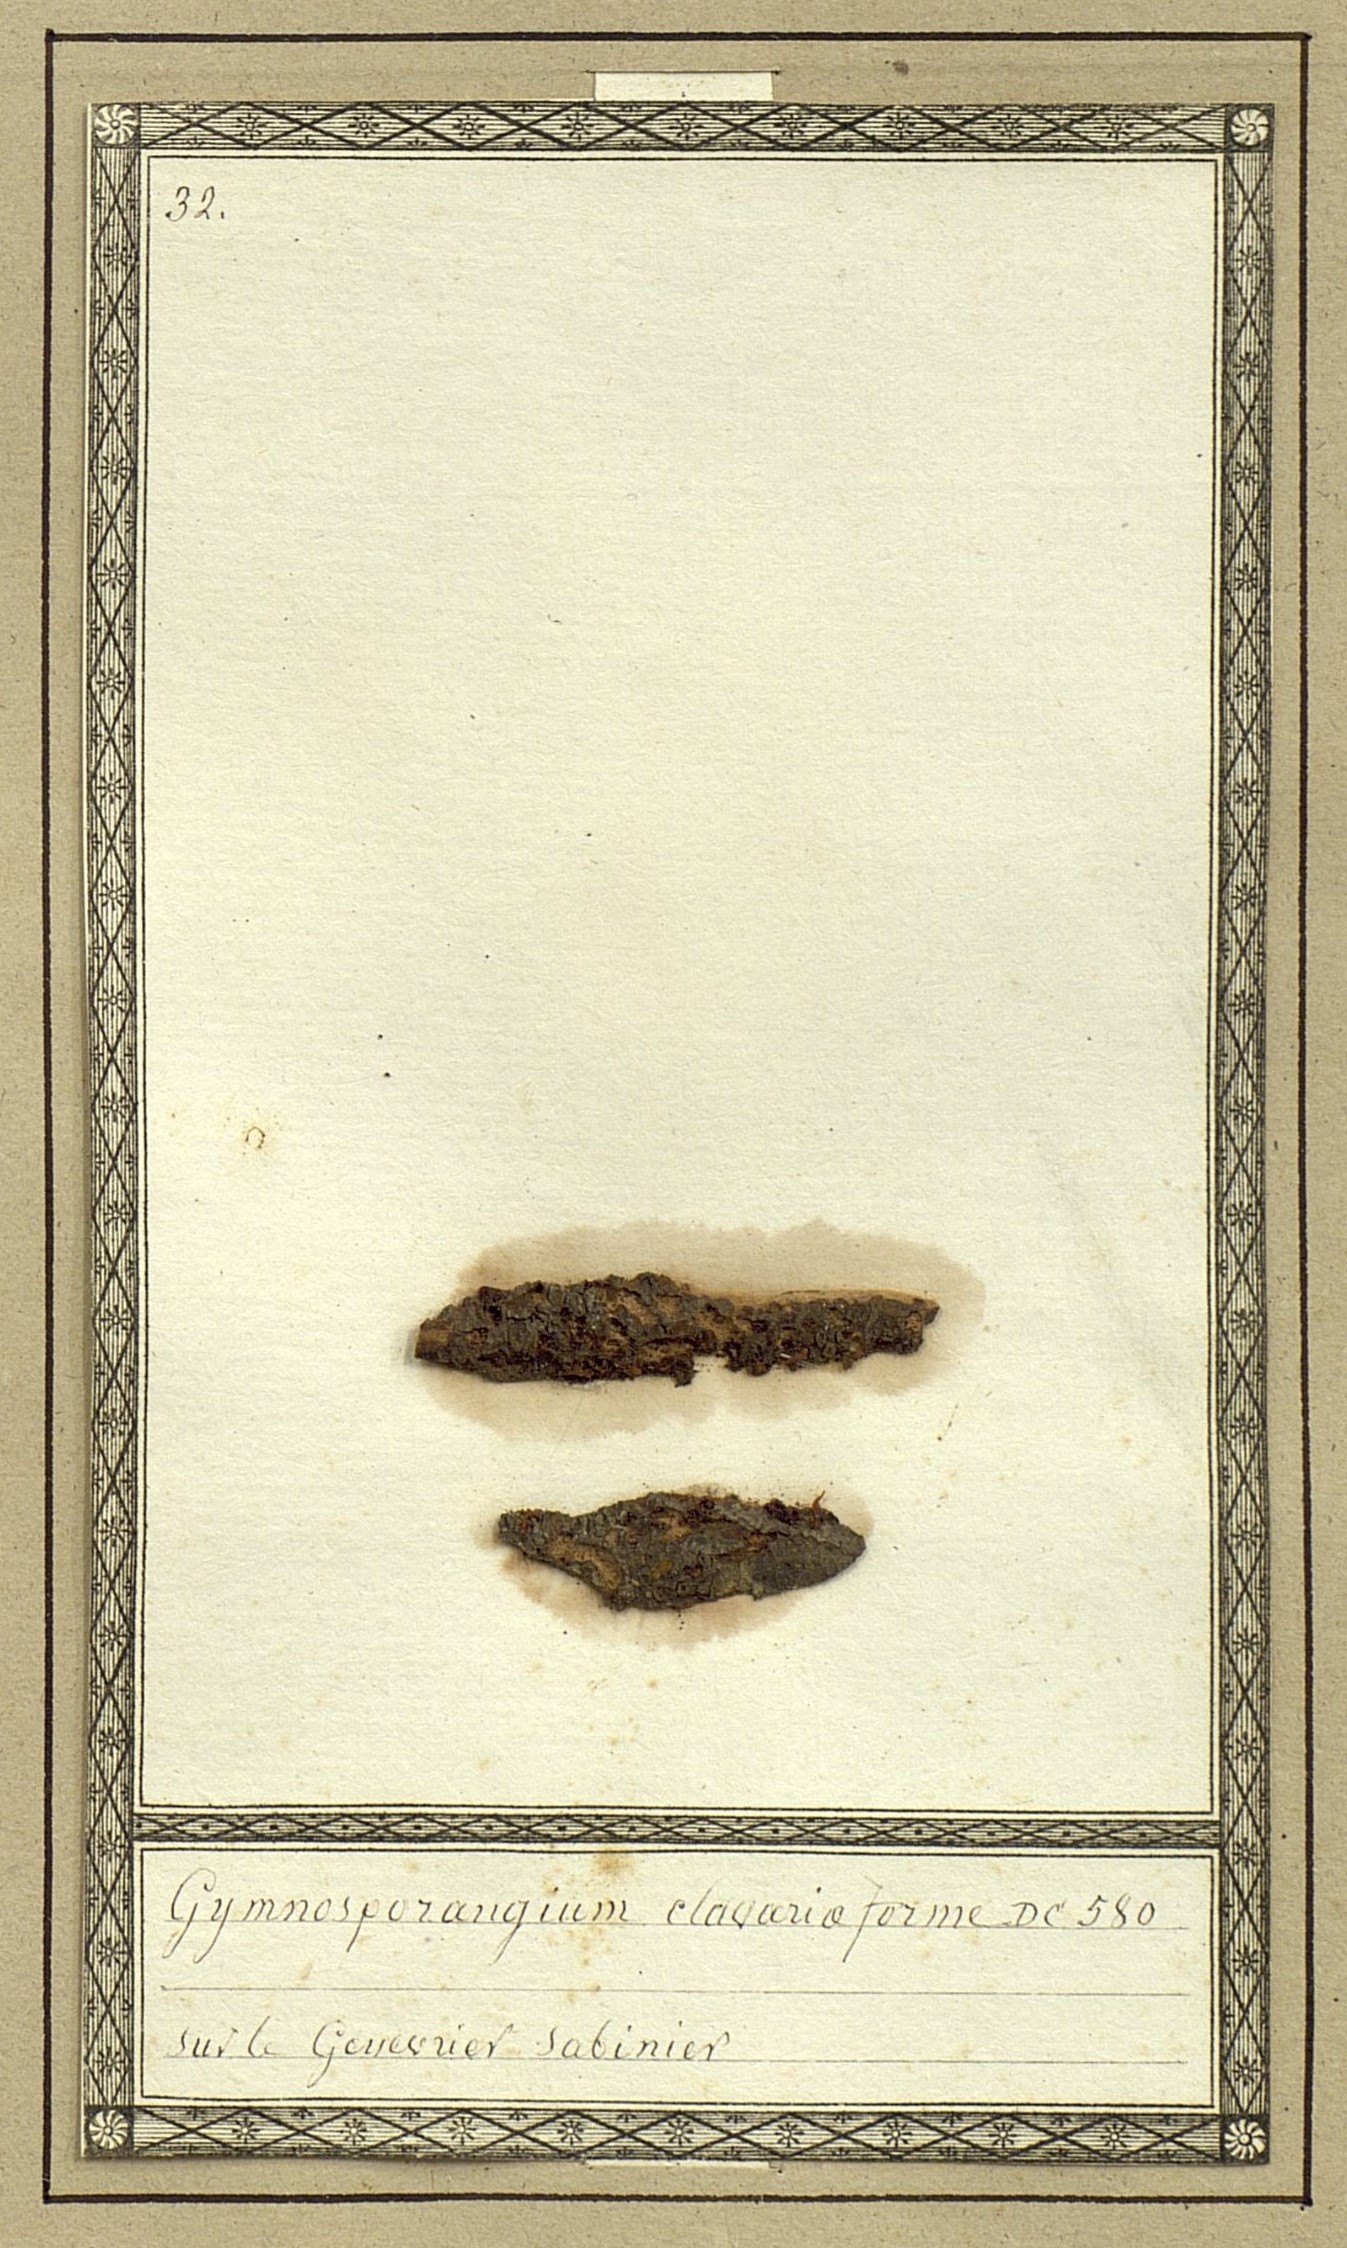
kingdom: Fungi
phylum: Basidiomycota
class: Pucciniomycetes
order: Pucciniales
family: Gymnosporangiaceae
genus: Gymnosporangium
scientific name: Gymnosporangium clavariiforme
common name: Tongues of fire
